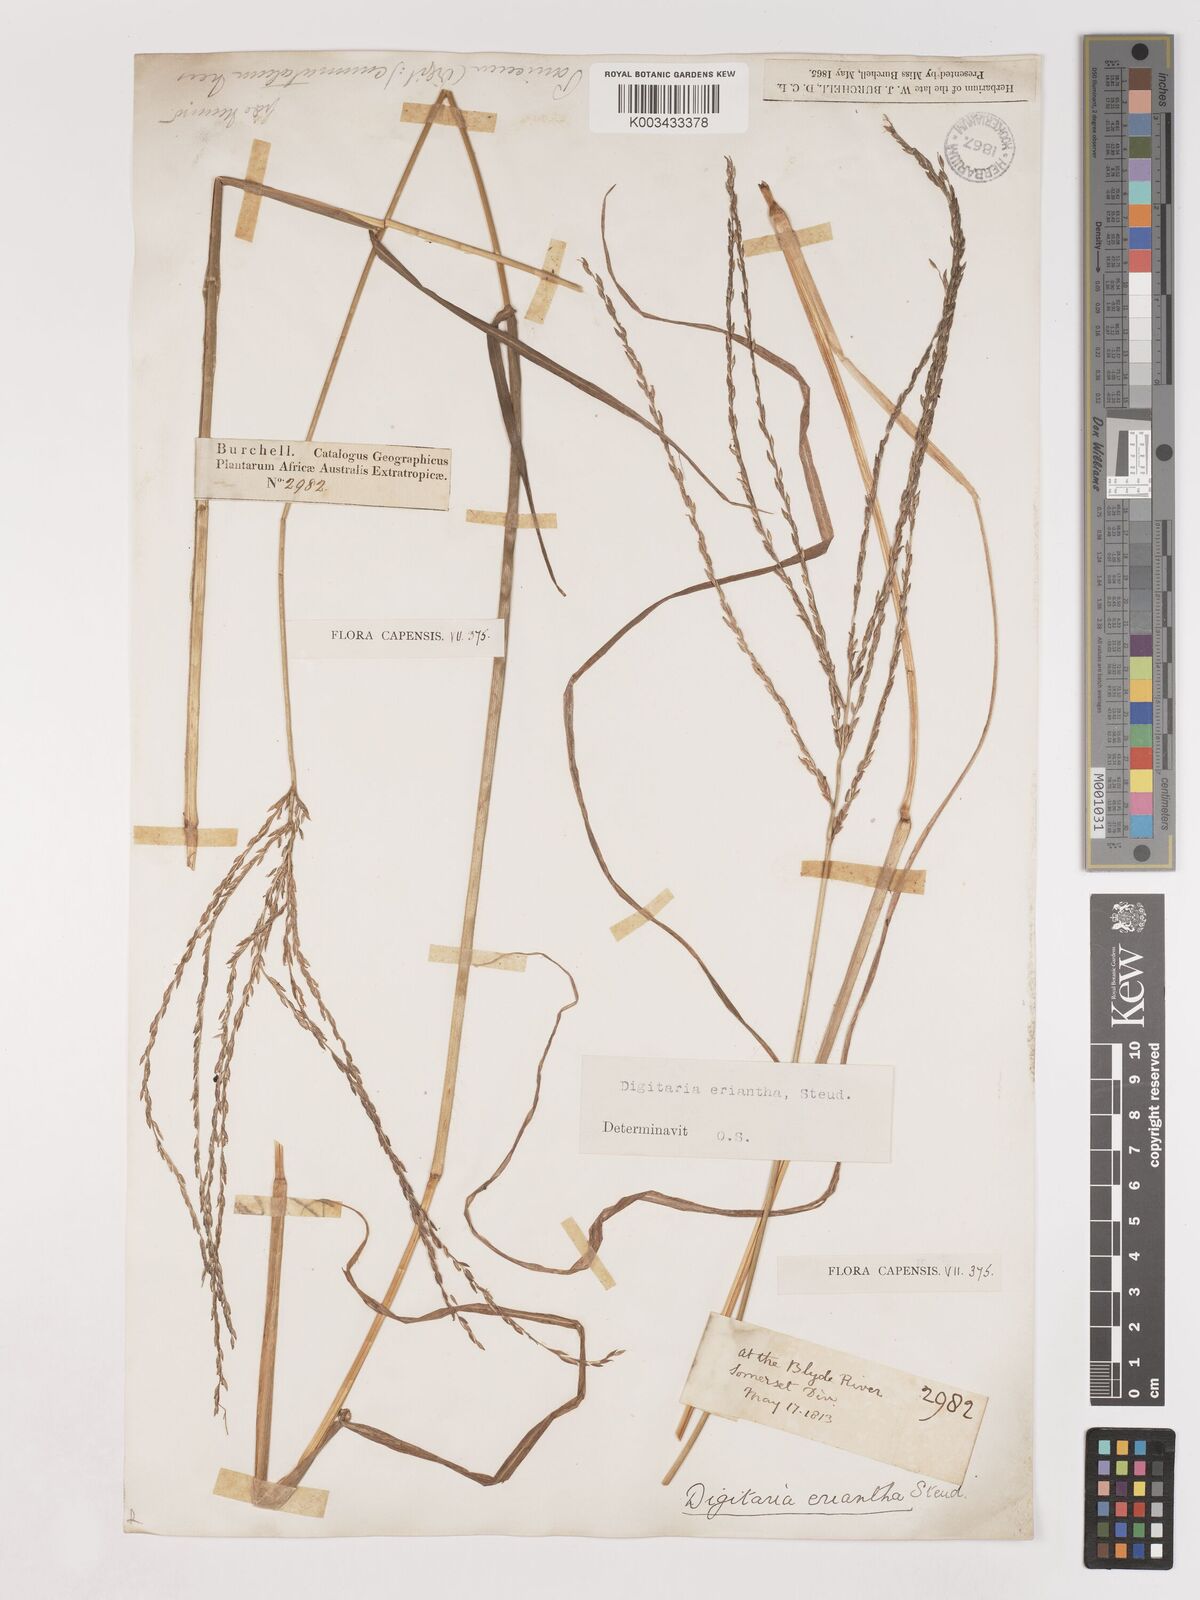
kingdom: Plantae
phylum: Tracheophyta
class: Liliopsida
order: Poales
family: Poaceae
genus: Digitaria
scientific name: Digitaria eriantha
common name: Digitgrass
